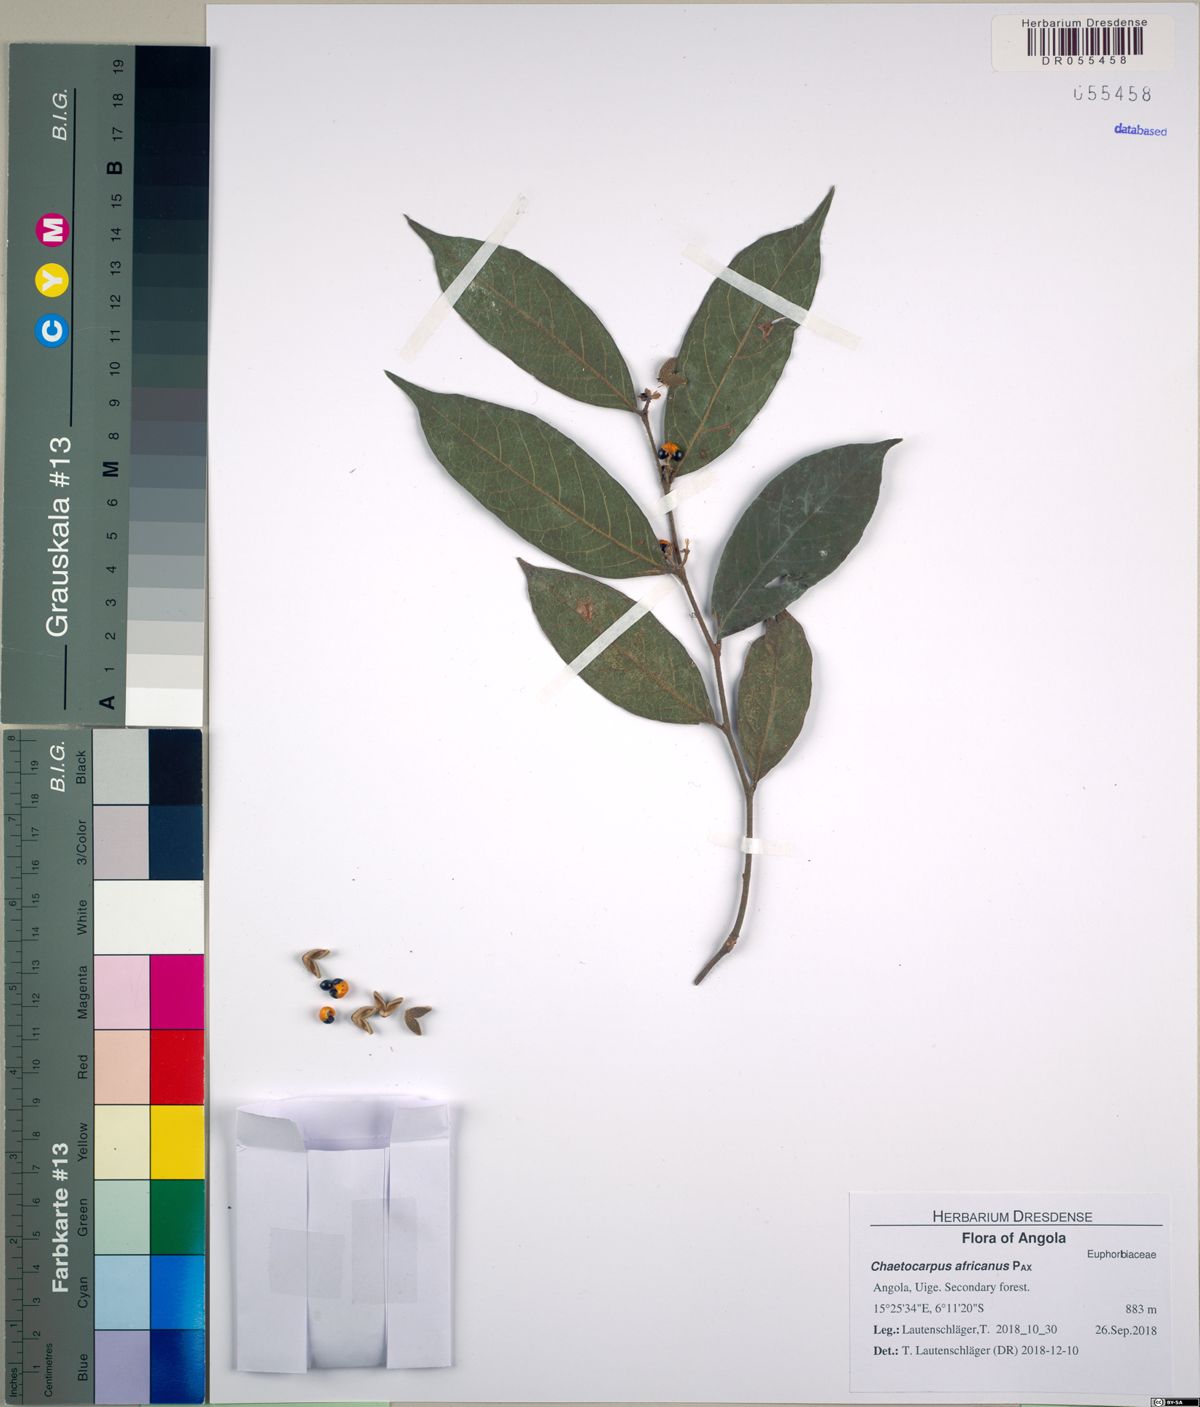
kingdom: Plantae
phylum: Tracheophyta
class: Magnoliopsida
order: Malpighiales
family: Peraceae
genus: Chaetocarpus
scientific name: Chaetocarpus africanus
